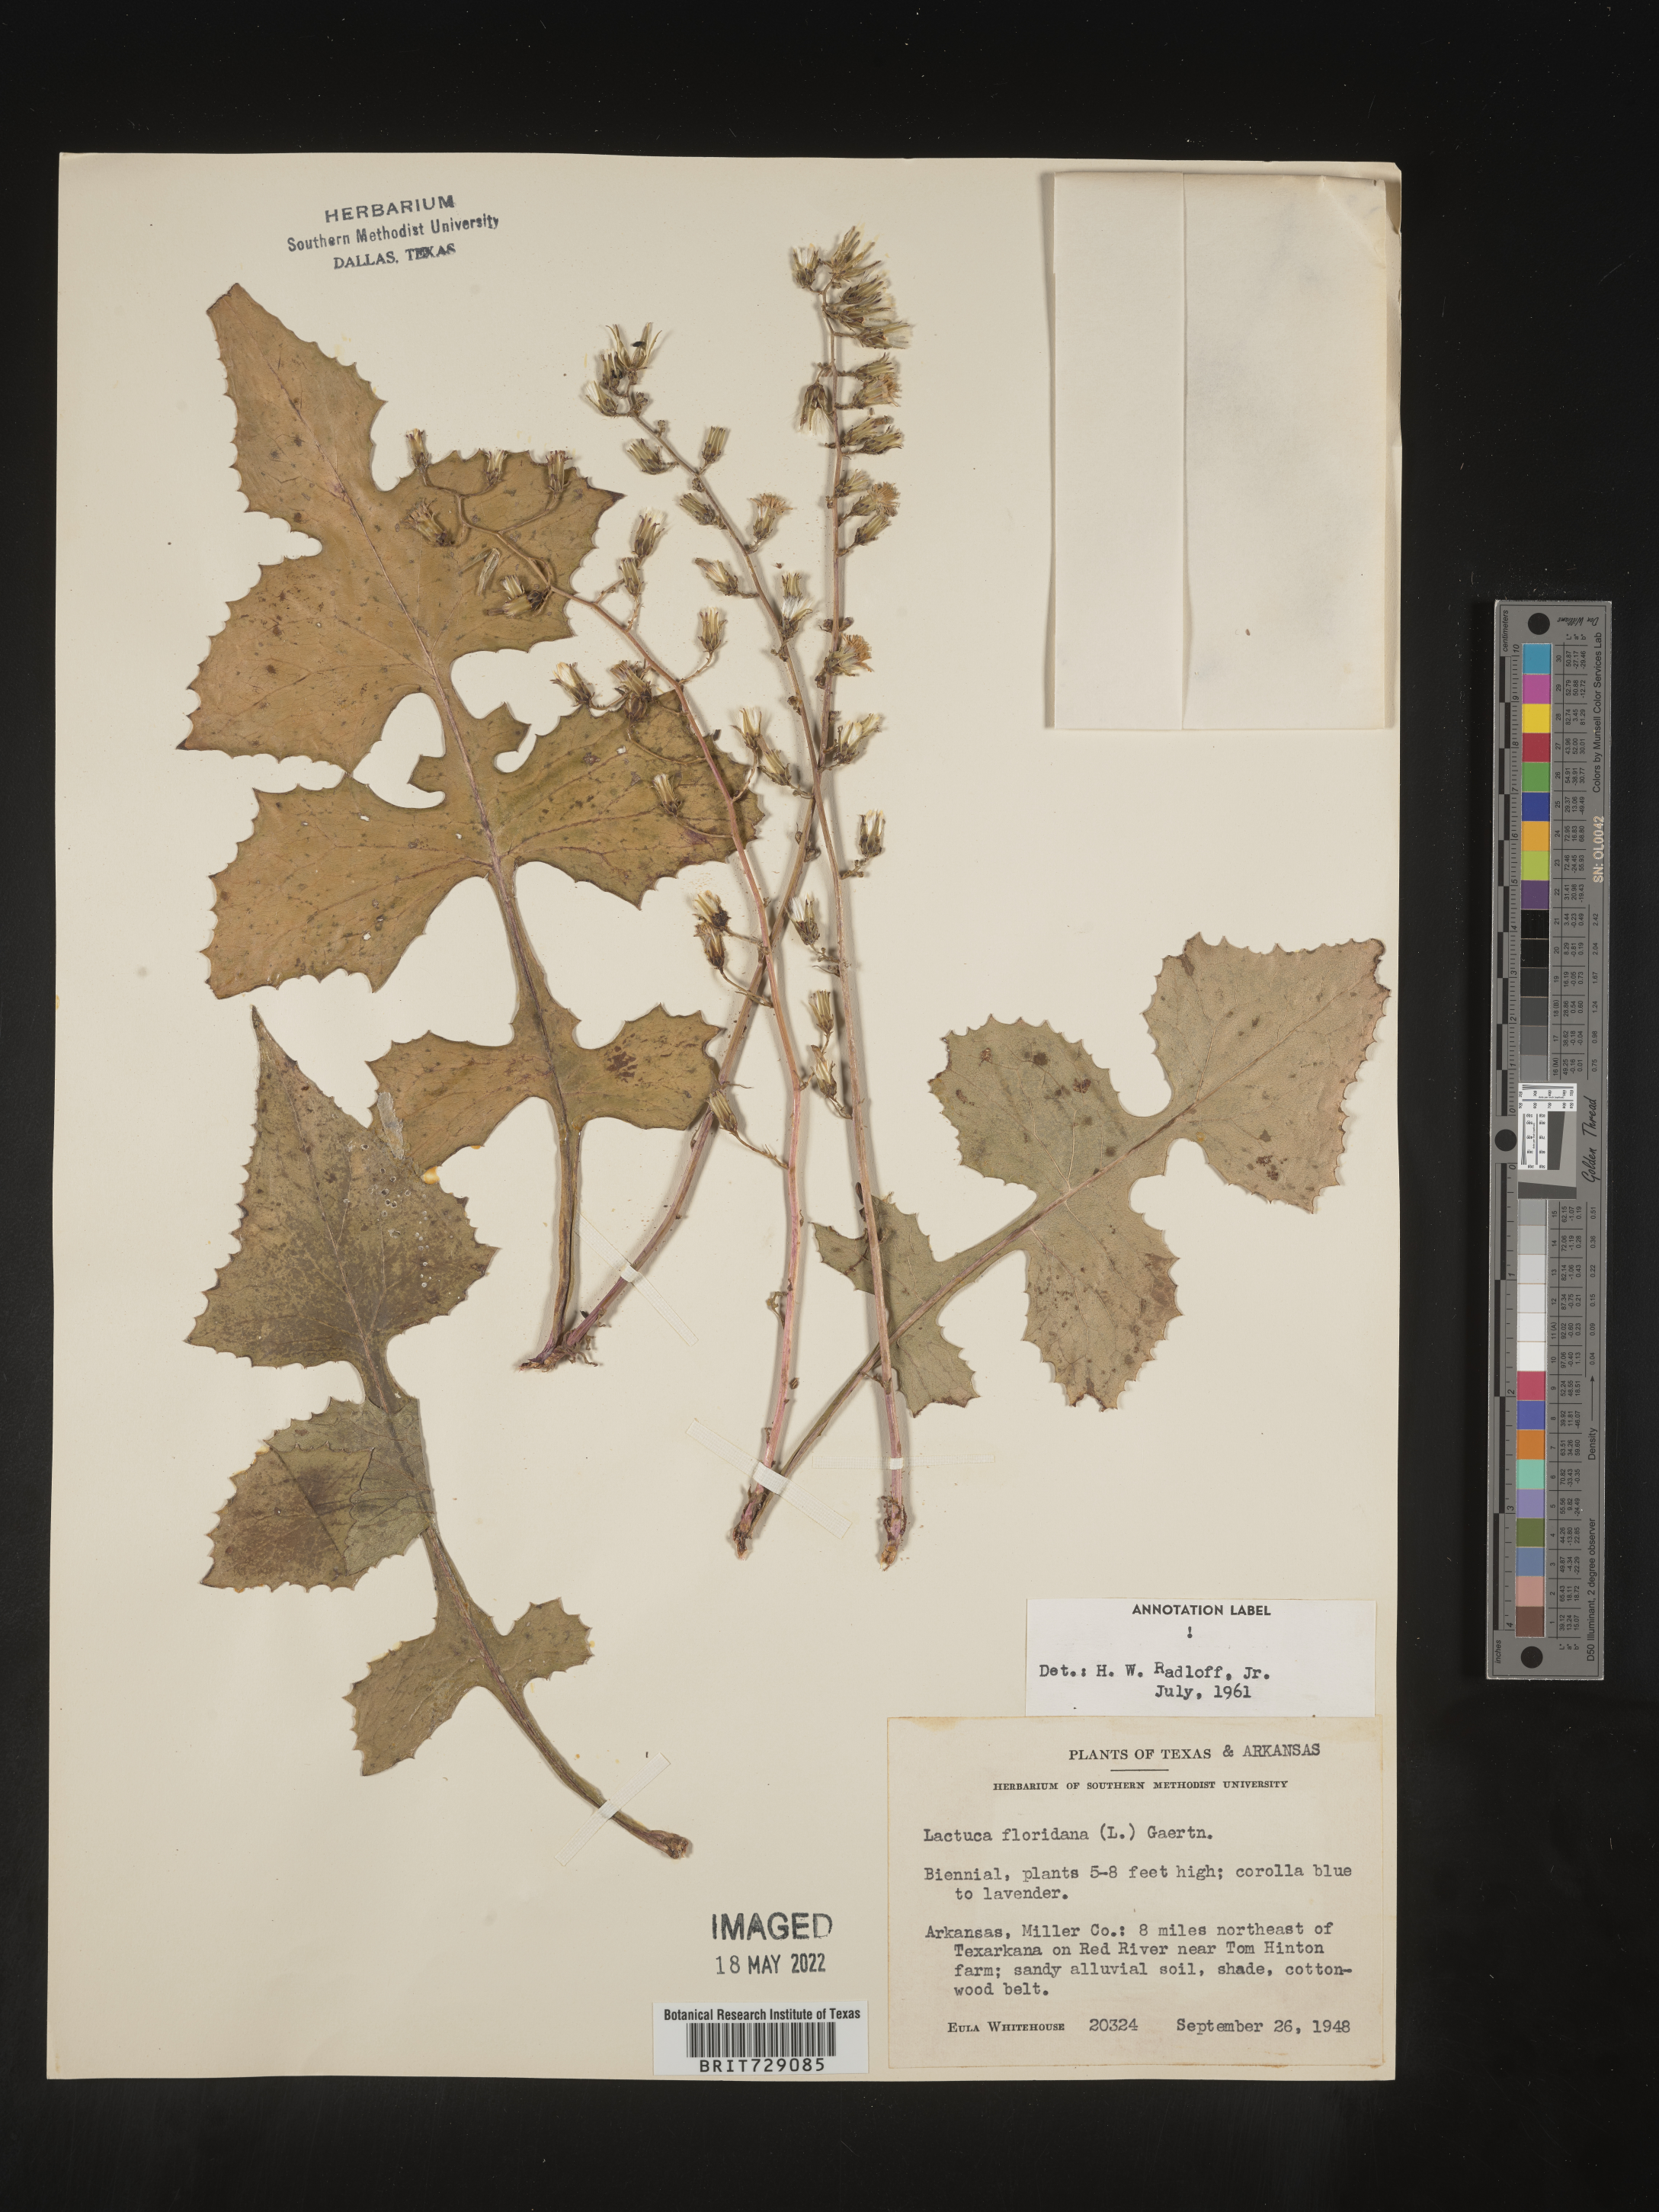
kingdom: Plantae
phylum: Tracheophyta
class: Magnoliopsida
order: Asterales
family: Asteraceae
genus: Lactuca
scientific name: Lactuca floridana
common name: Woodland lettuce
